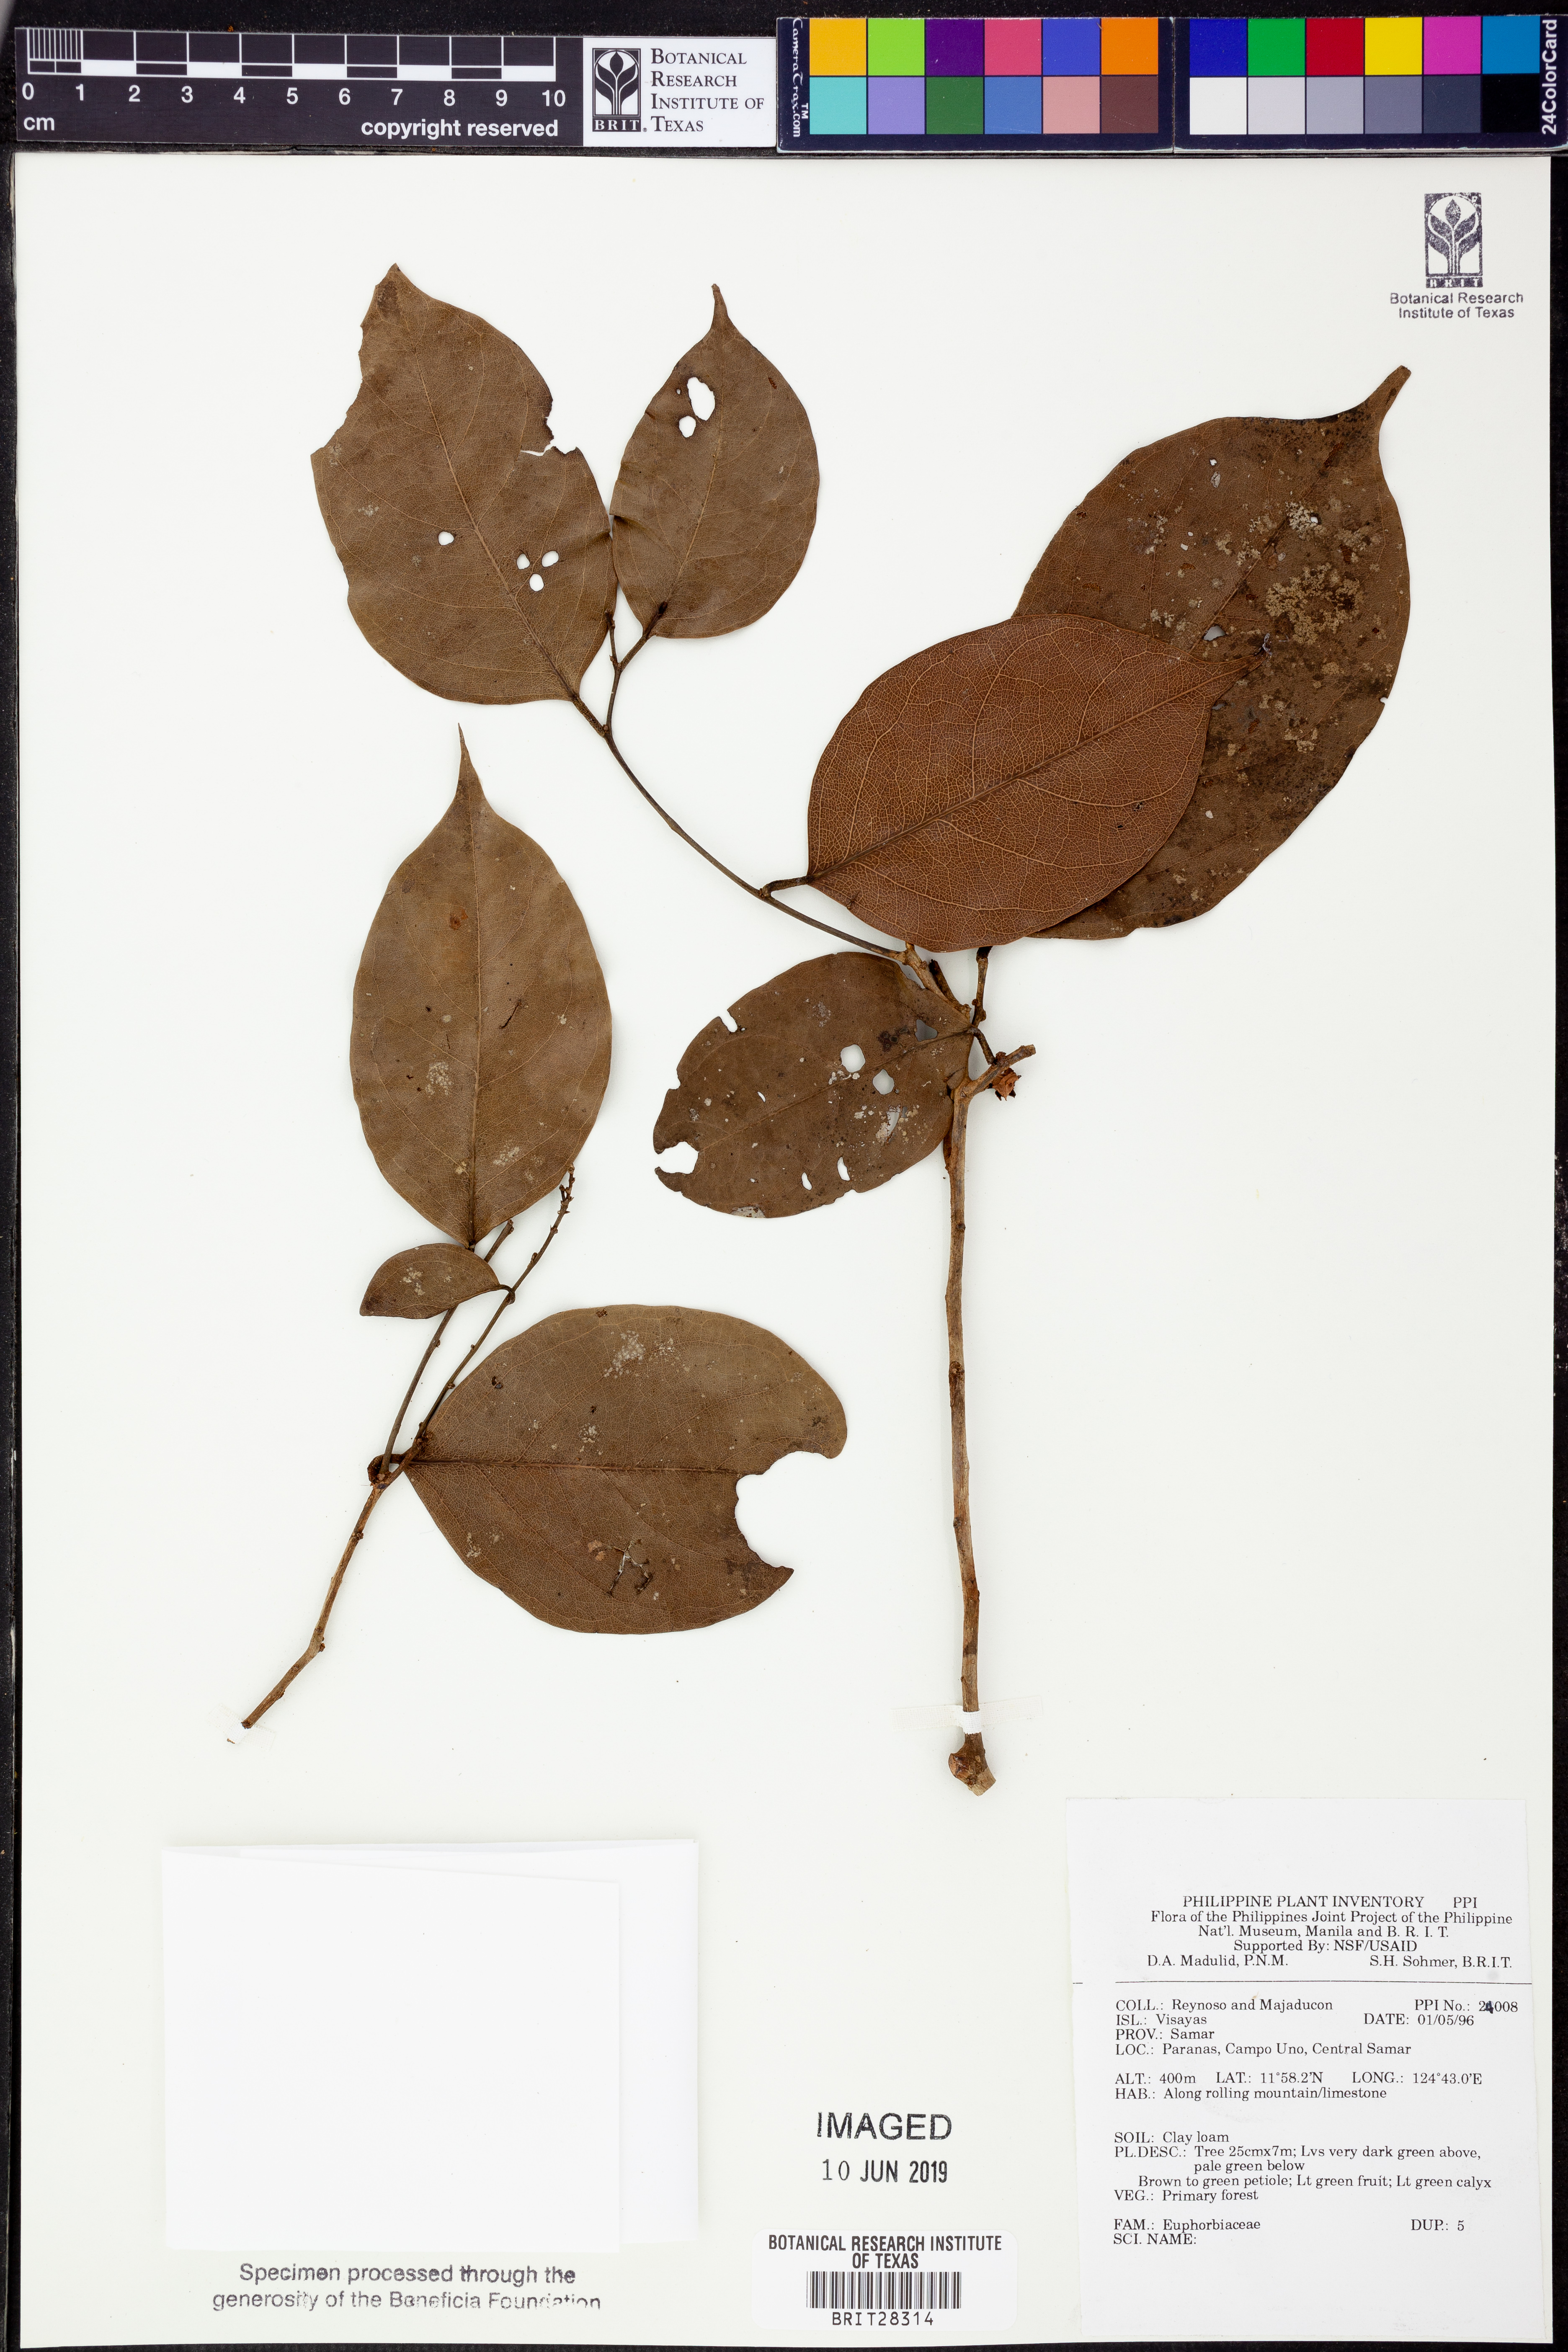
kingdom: Plantae
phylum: Tracheophyta
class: Magnoliopsida
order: Malpighiales
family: Euphorbiaceae
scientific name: Euphorbiaceae
